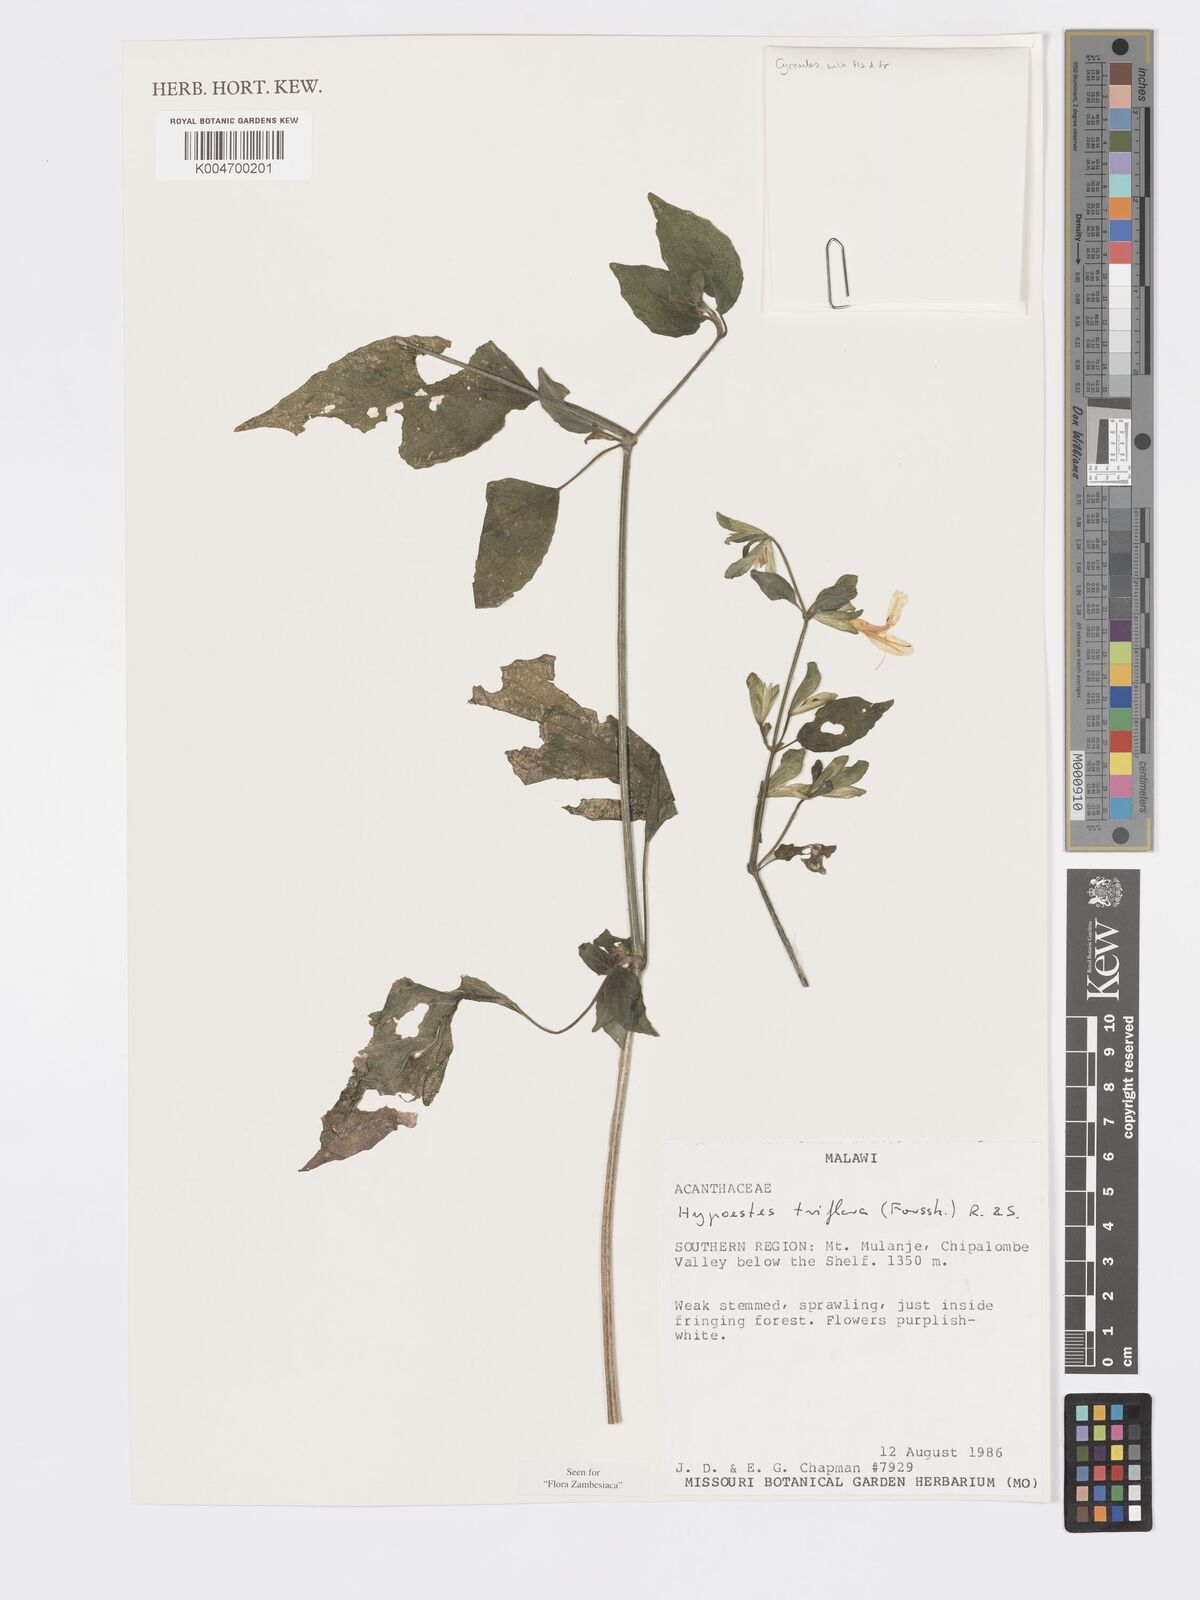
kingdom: Plantae
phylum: Tracheophyta
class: Magnoliopsida
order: Lamiales
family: Acanthaceae
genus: Hypoestes
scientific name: Hypoestes triflora
